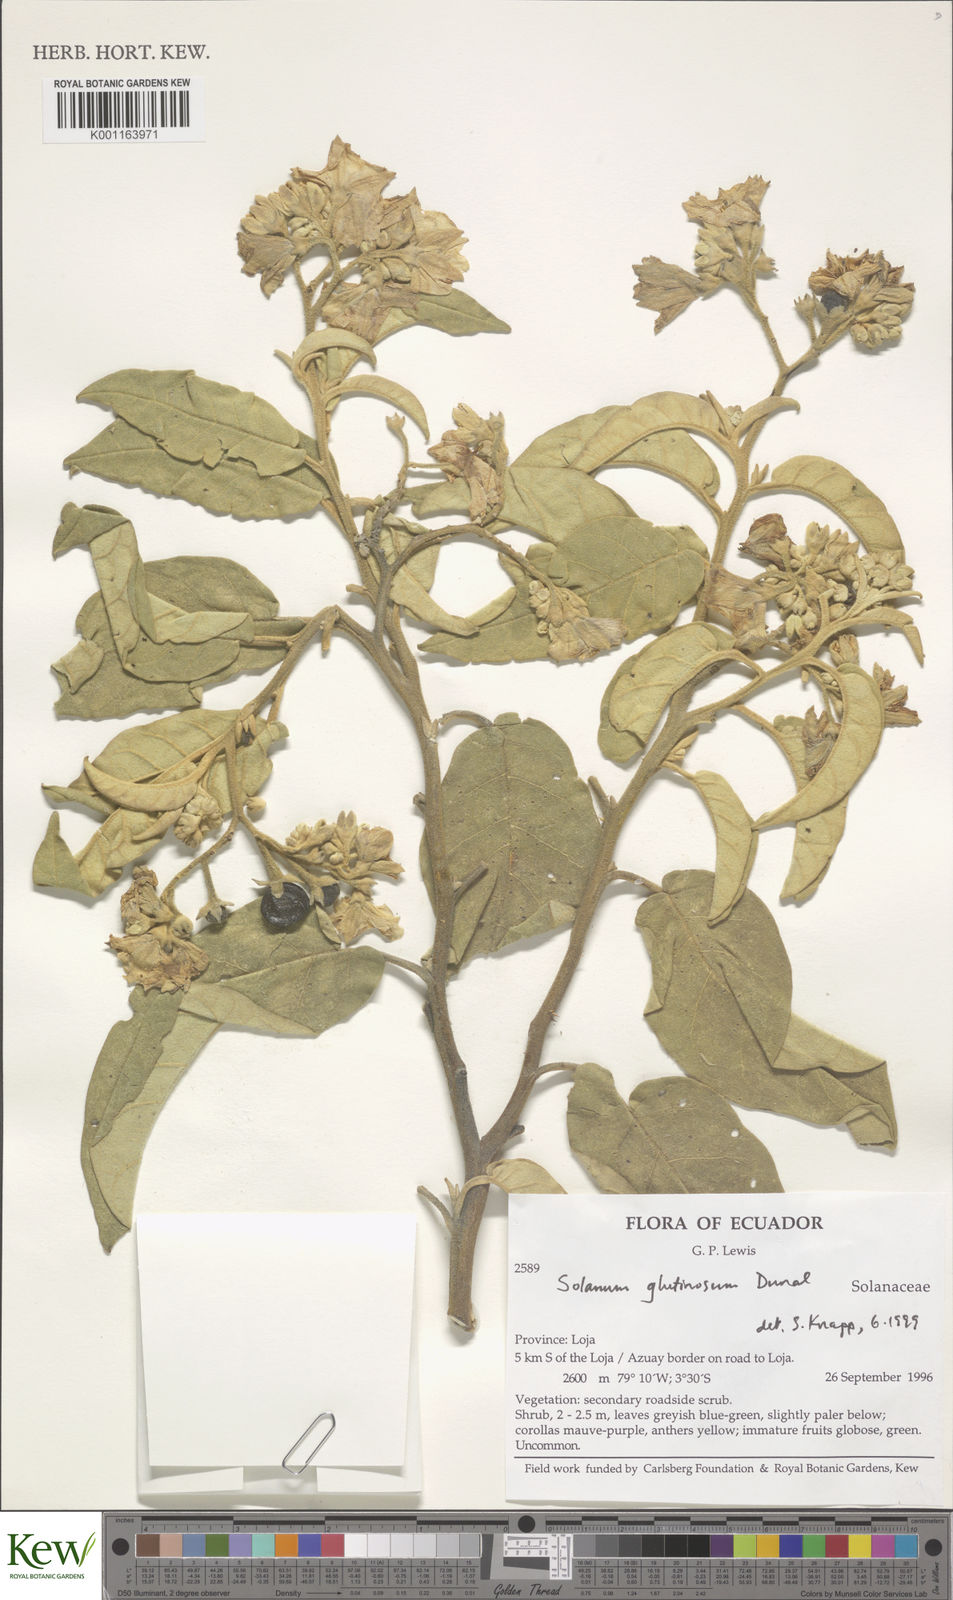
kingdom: Plantae
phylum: Tracheophyta
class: Magnoliopsida
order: Solanales
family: Solanaceae
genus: Solanum
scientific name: Solanum glutinosum
